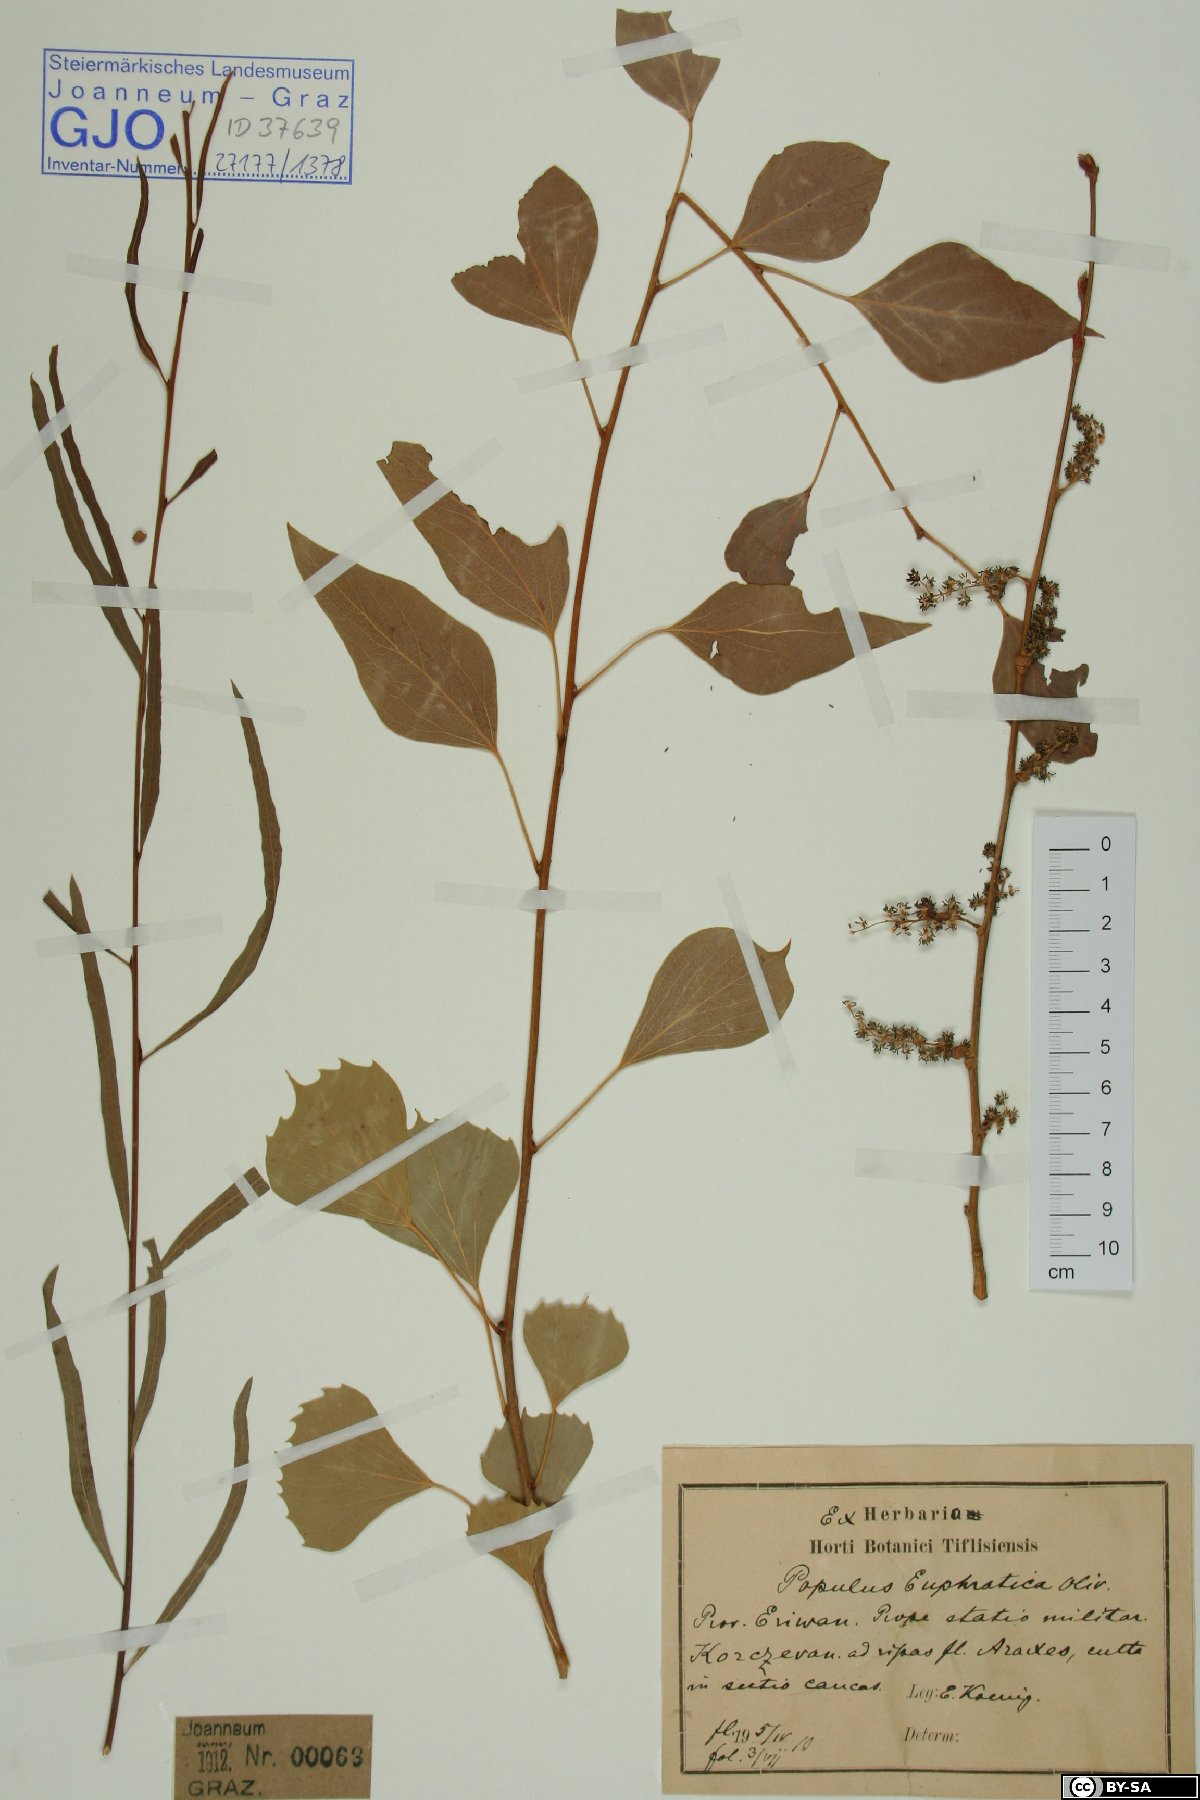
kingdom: Plantae
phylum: Tracheophyta
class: Magnoliopsida
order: Malpighiales
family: Salicaceae
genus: Populus
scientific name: Populus euphratica
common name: Euphrates poplar
